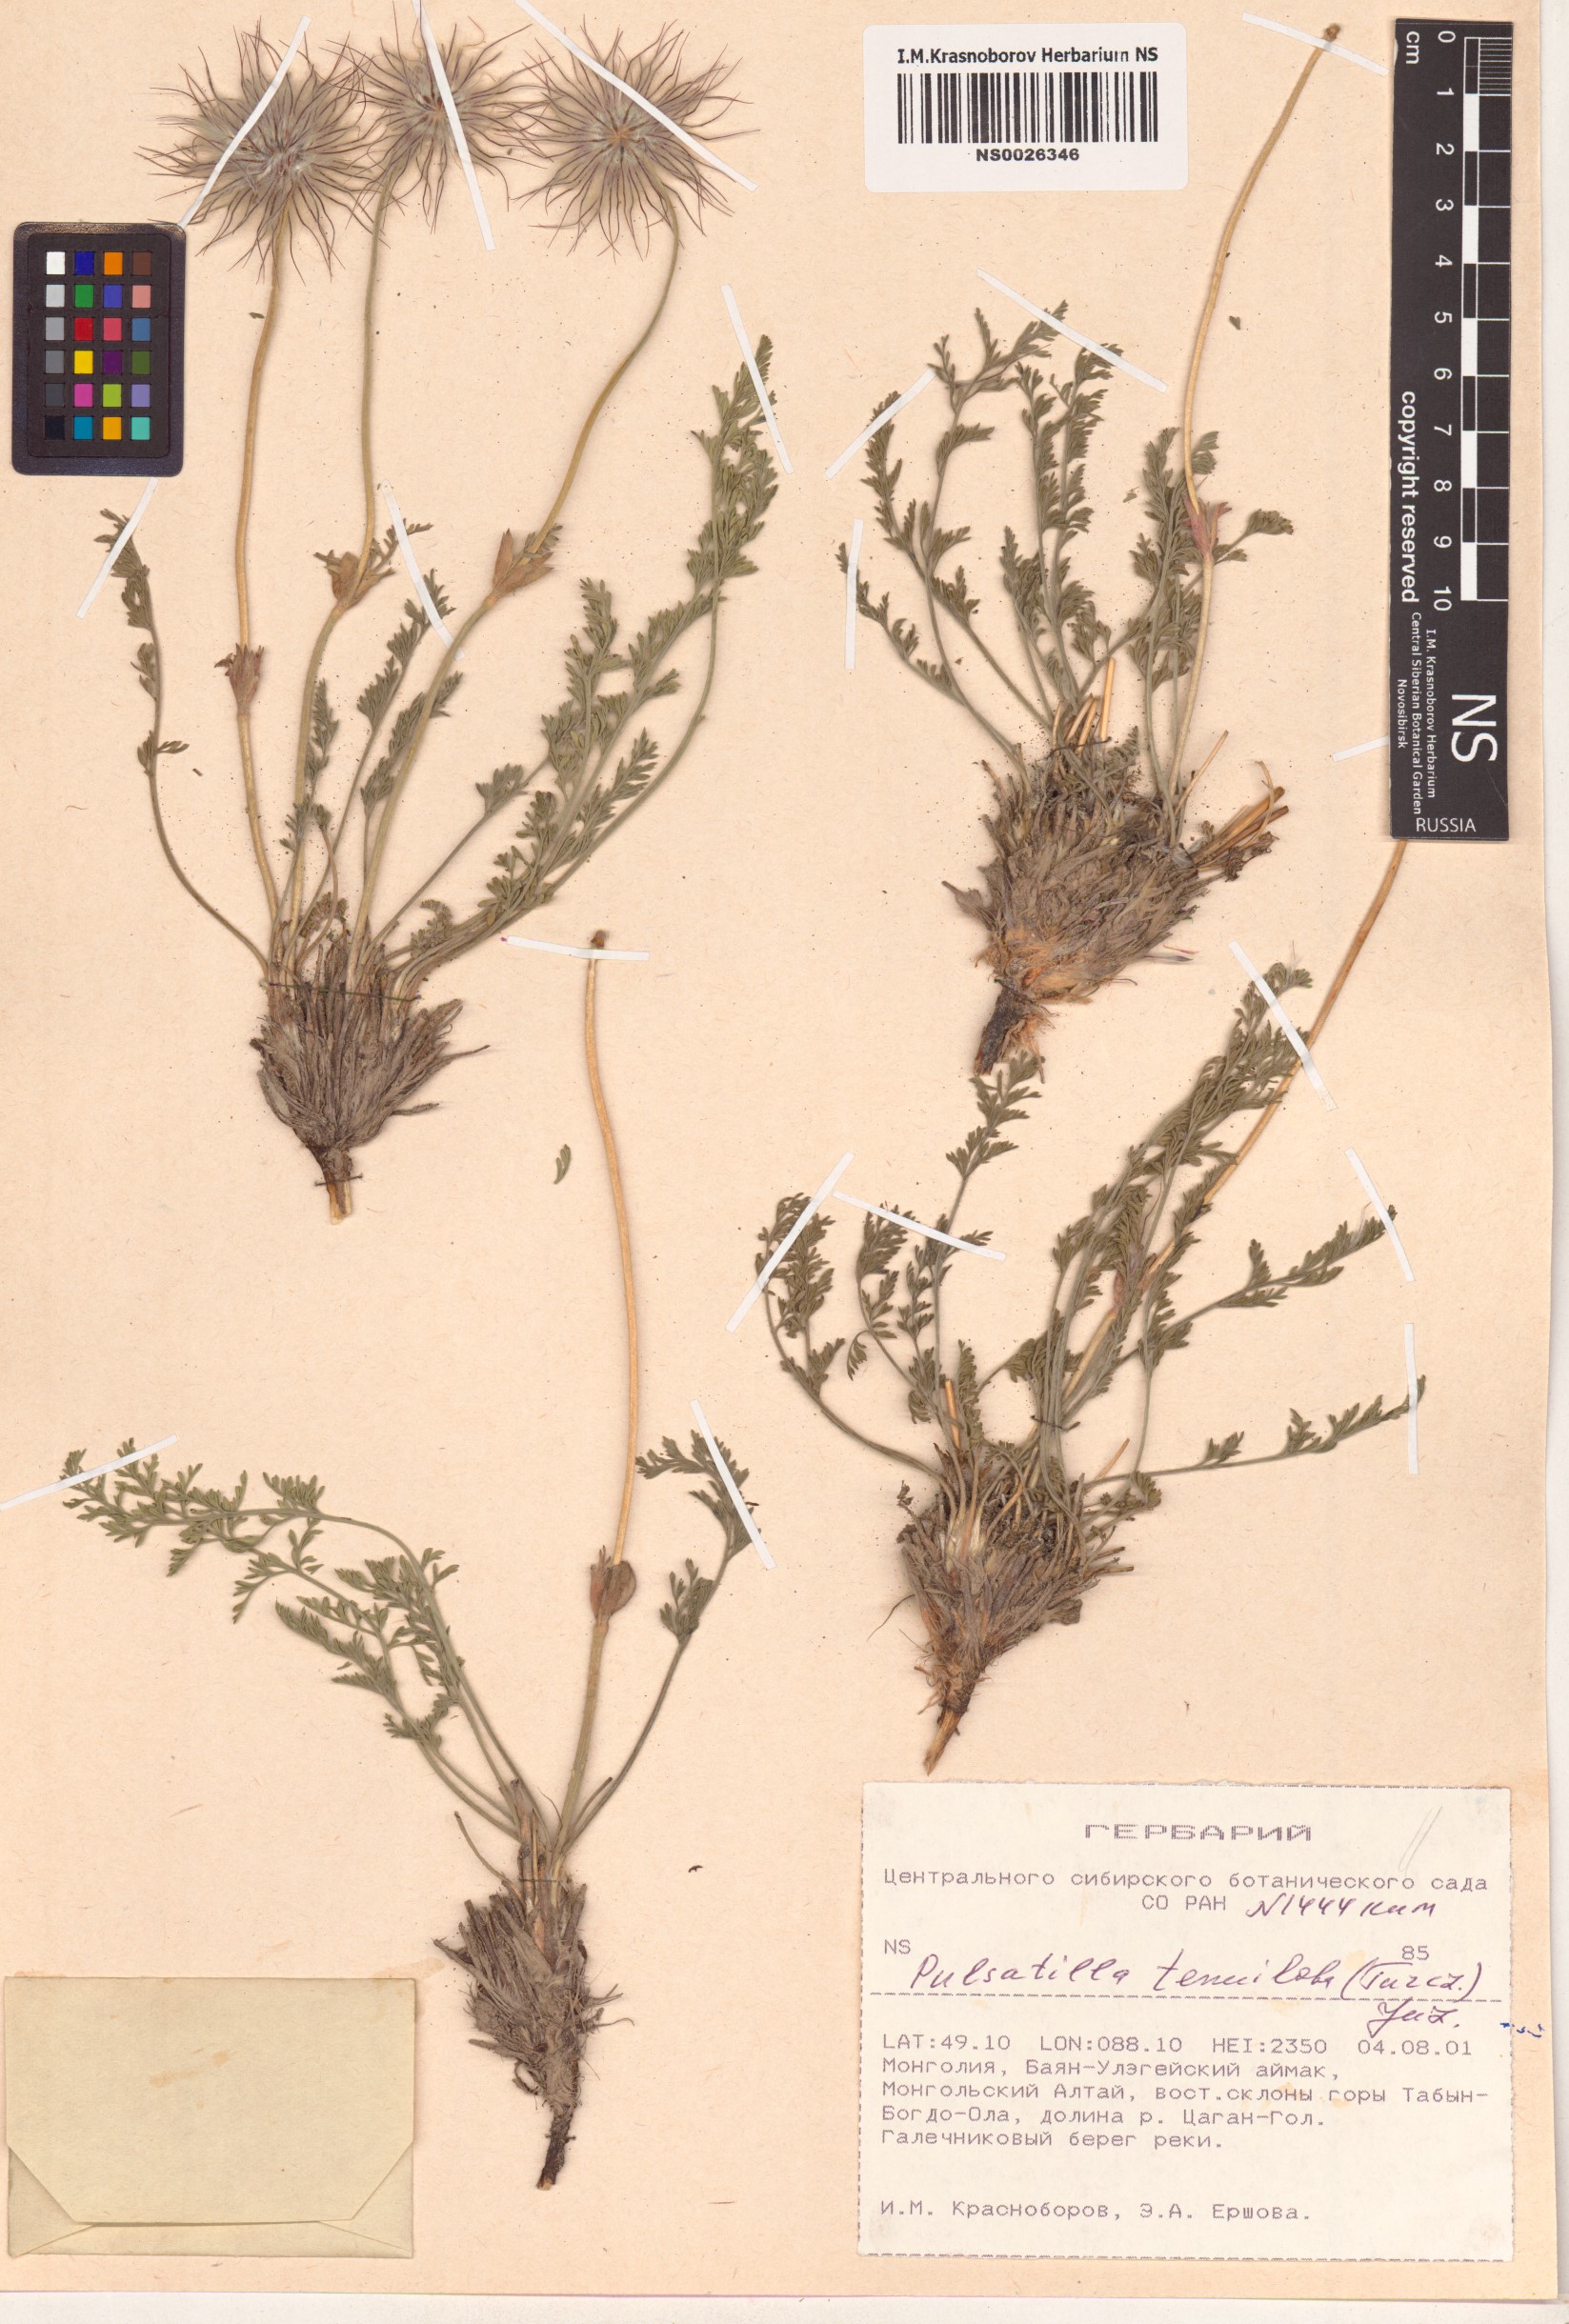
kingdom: Plantae
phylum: Tracheophyta
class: Magnoliopsida
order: Ranunculales
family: Ranunculaceae
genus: Pulsatilla
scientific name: Pulsatilla tenuiloba
